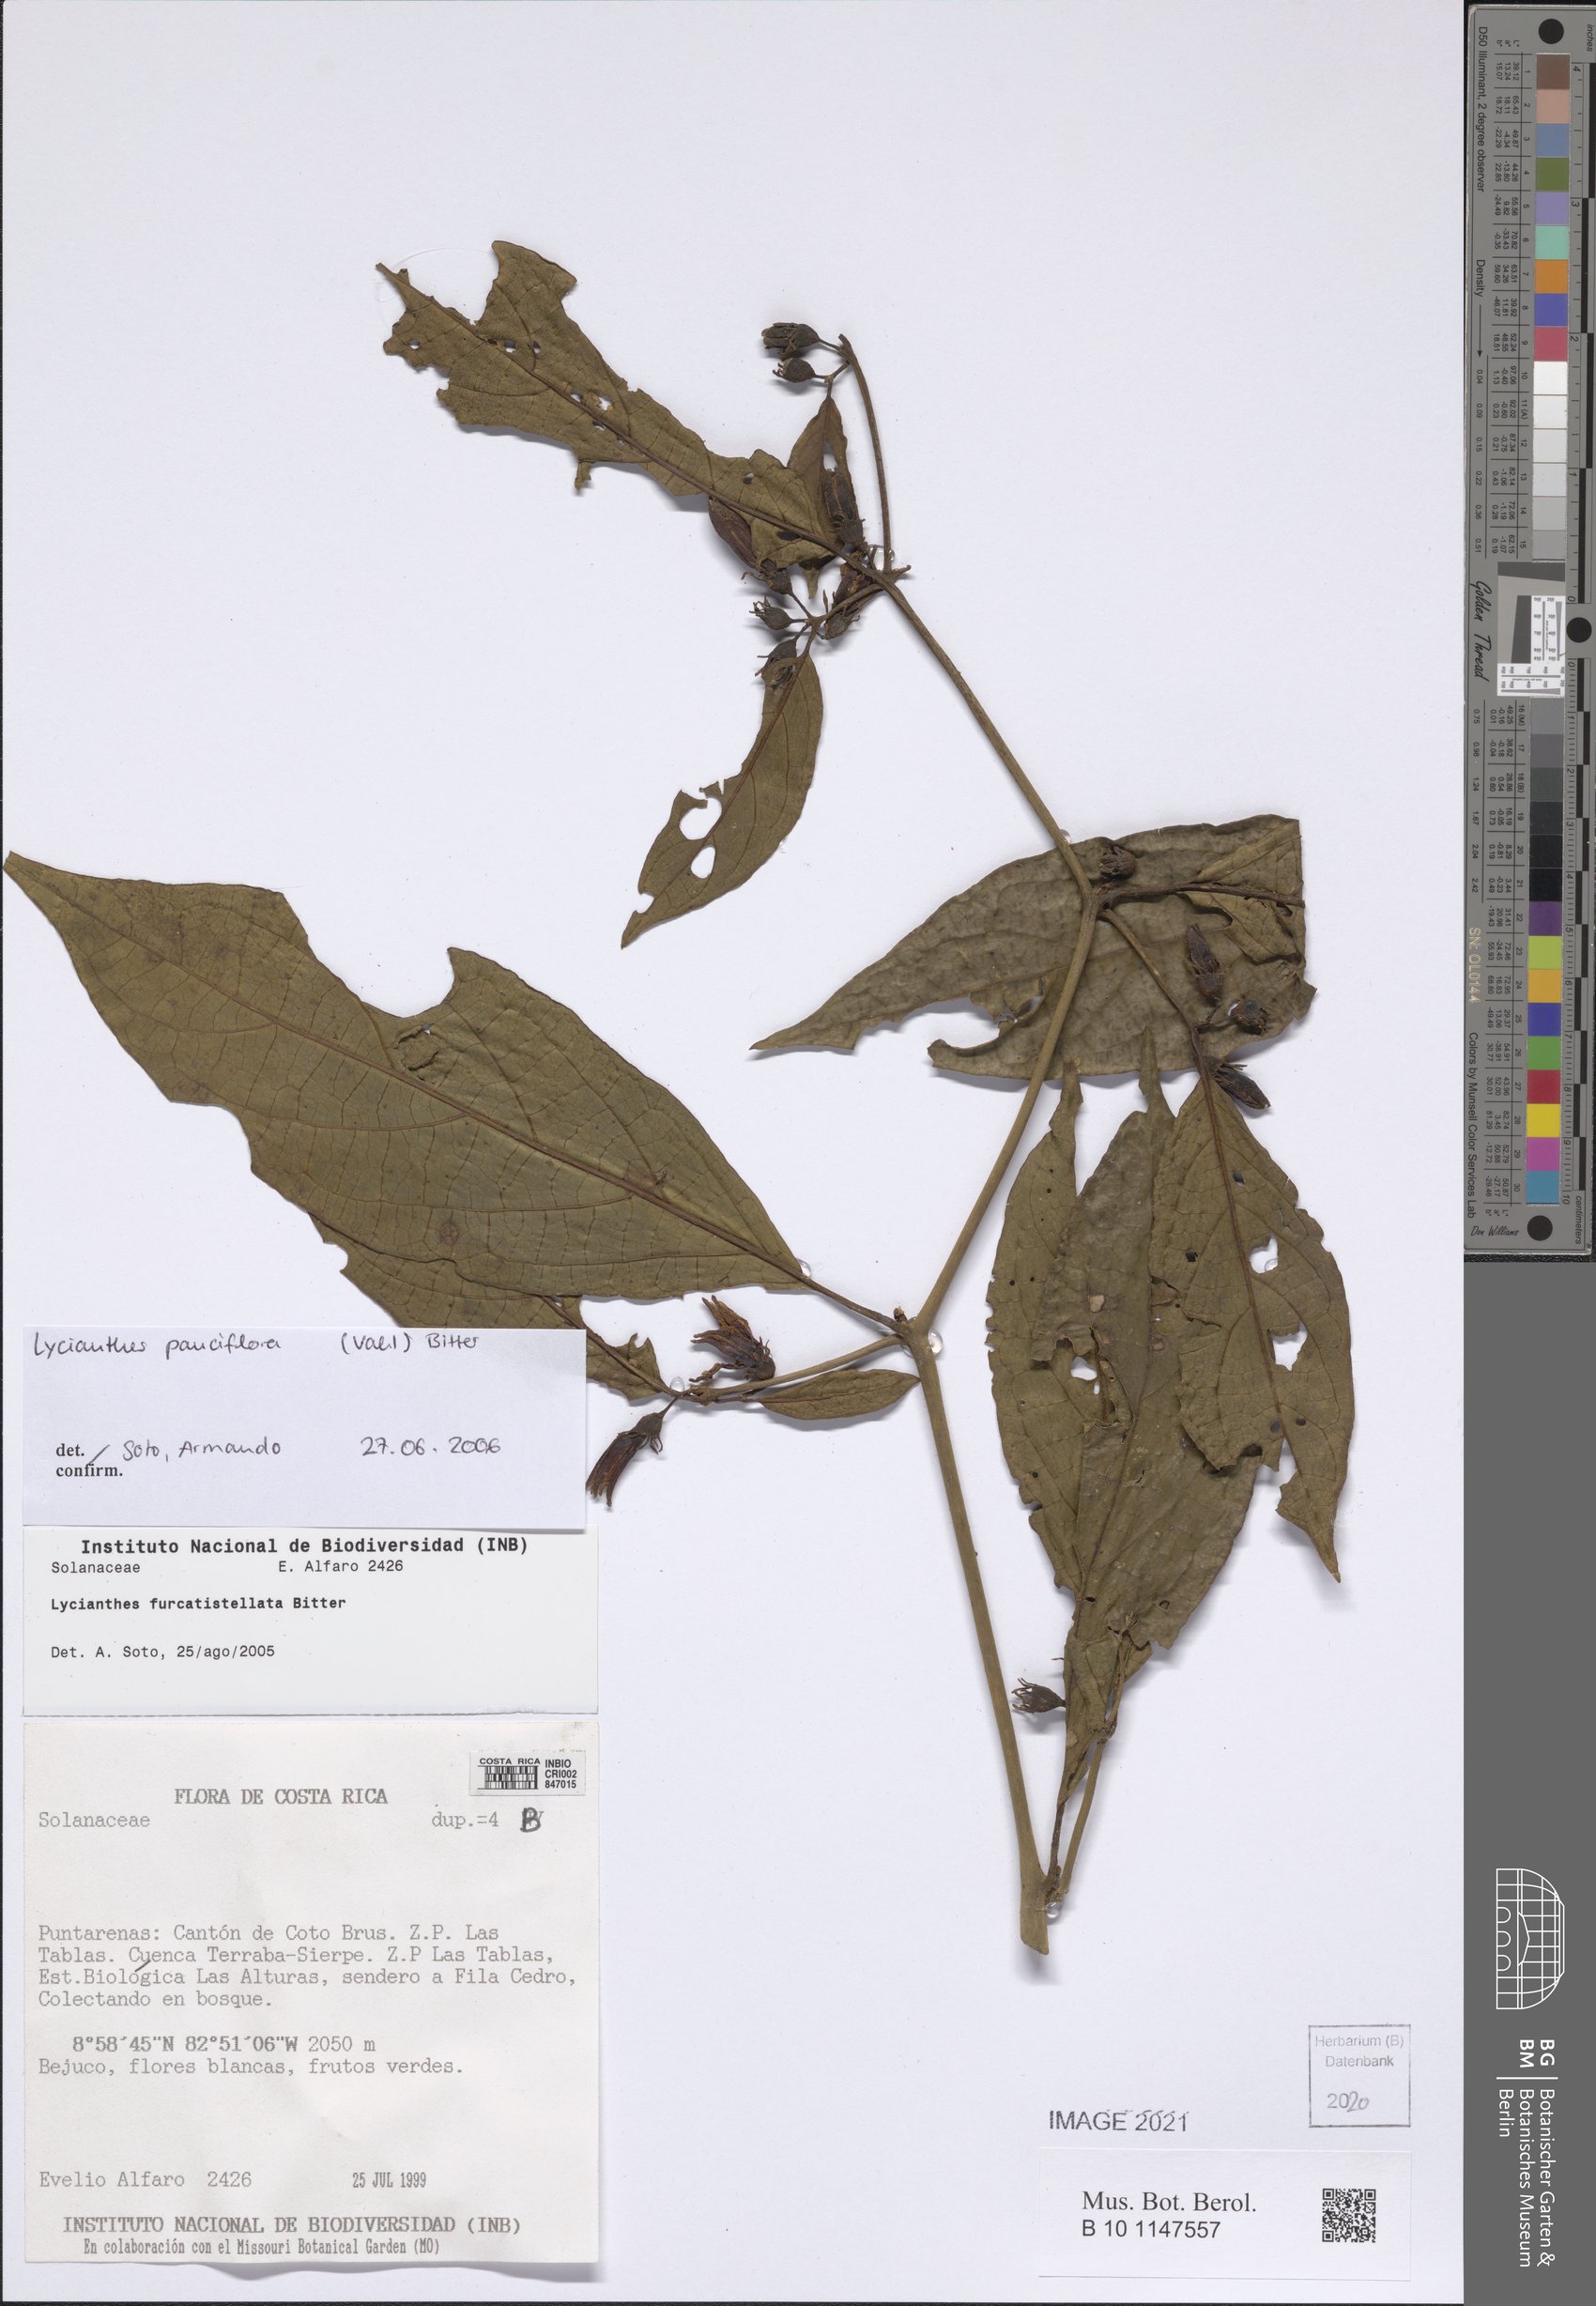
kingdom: Plantae
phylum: Tracheophyta
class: Magnoliopsida
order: Solanales
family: Solanaceae
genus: Lycianthes
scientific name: Lycianthes pauciflora
